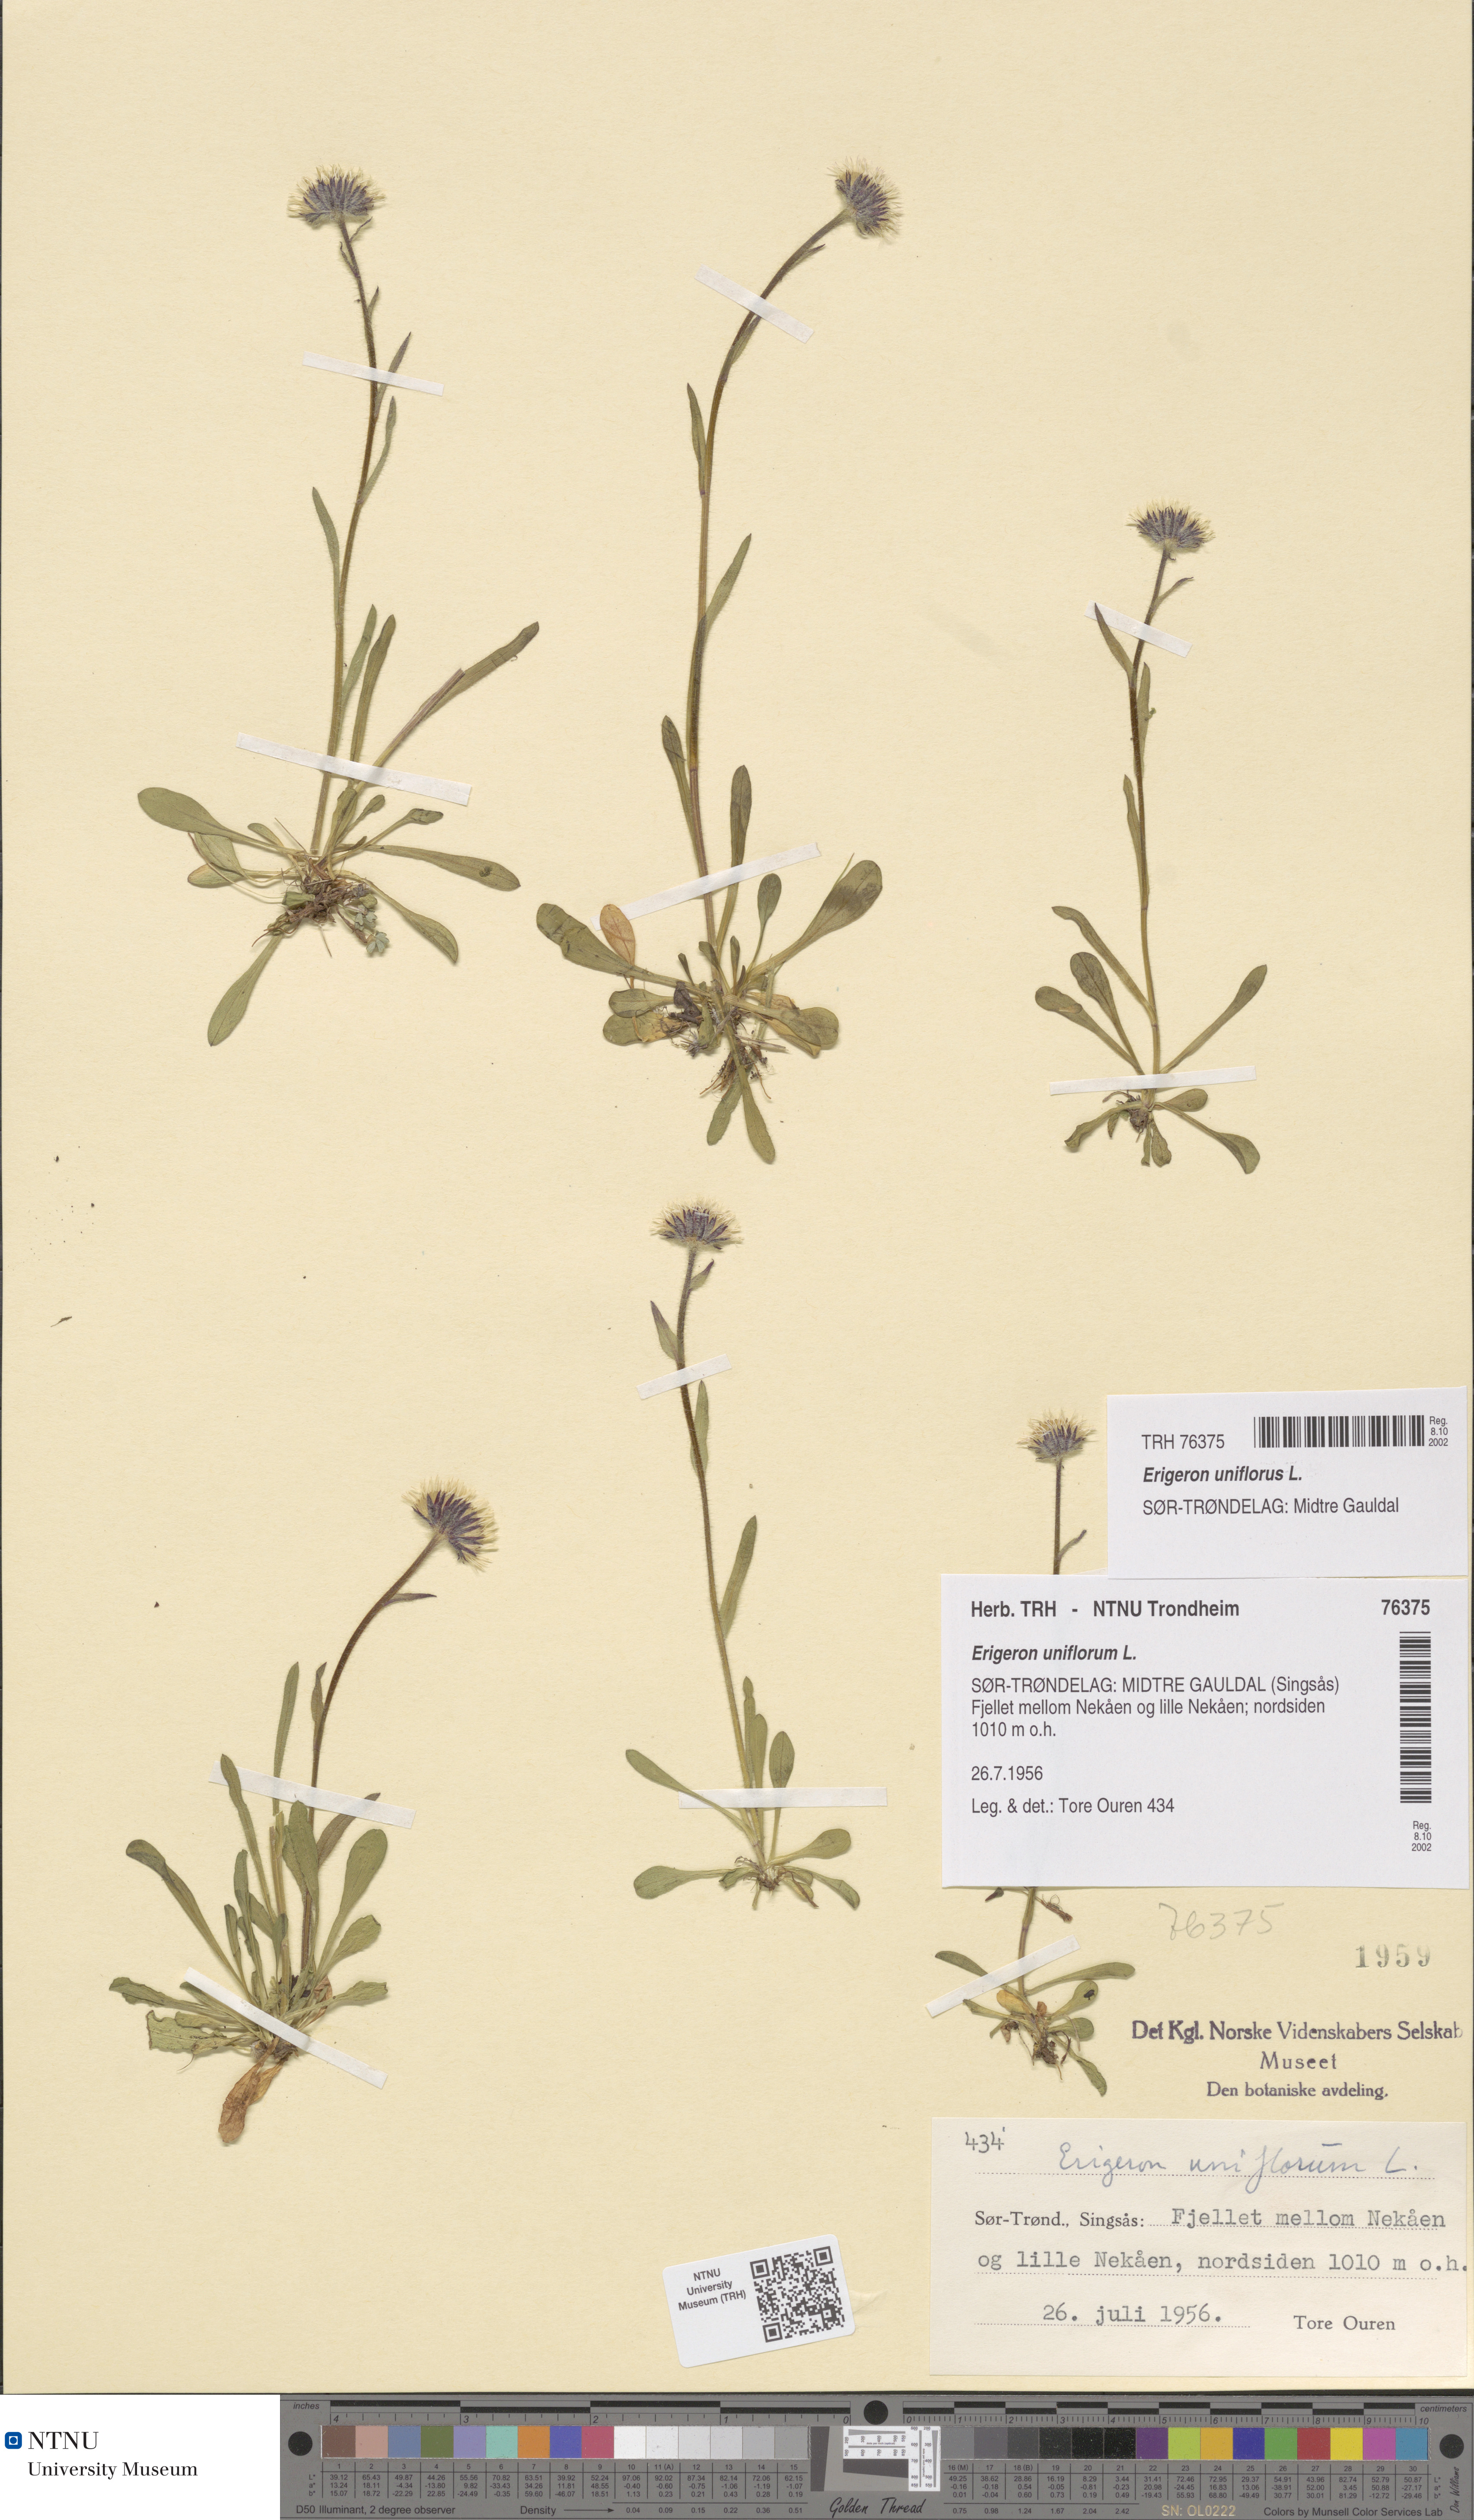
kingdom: Plantae
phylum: Tracheophyta
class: Magnoliopsida
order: Asterales
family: Asteraceae
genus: Erigeron
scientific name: Erigeron uniflorus
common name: Northern daisy
